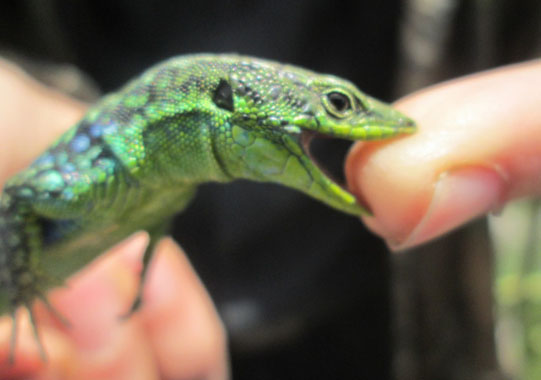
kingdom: Animalia
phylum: Chordata
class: Squamata
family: Lacertidae
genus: Darevskia
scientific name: Darevskia saxicola
